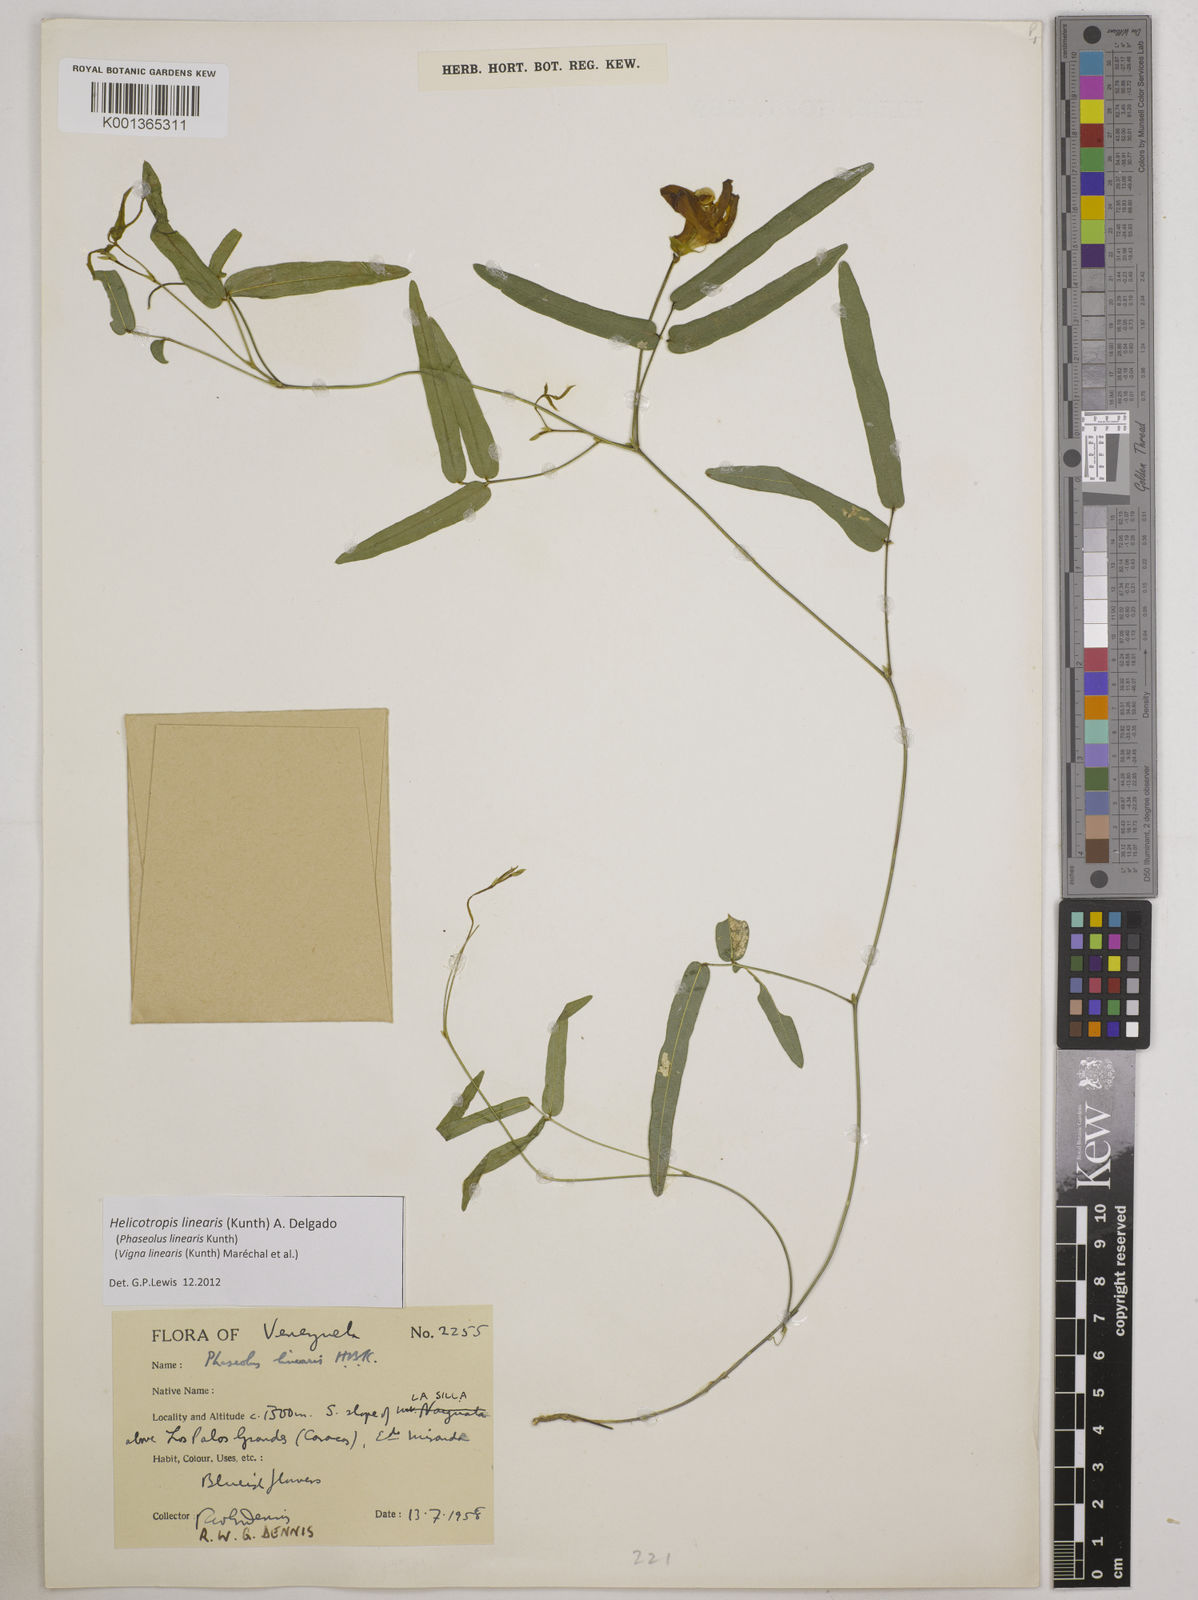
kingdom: Plantae
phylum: Tracheophyta
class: Magnoliopsida
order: Fabales
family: Fabaceae
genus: Helicotropis
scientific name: Helicotropis linearis
